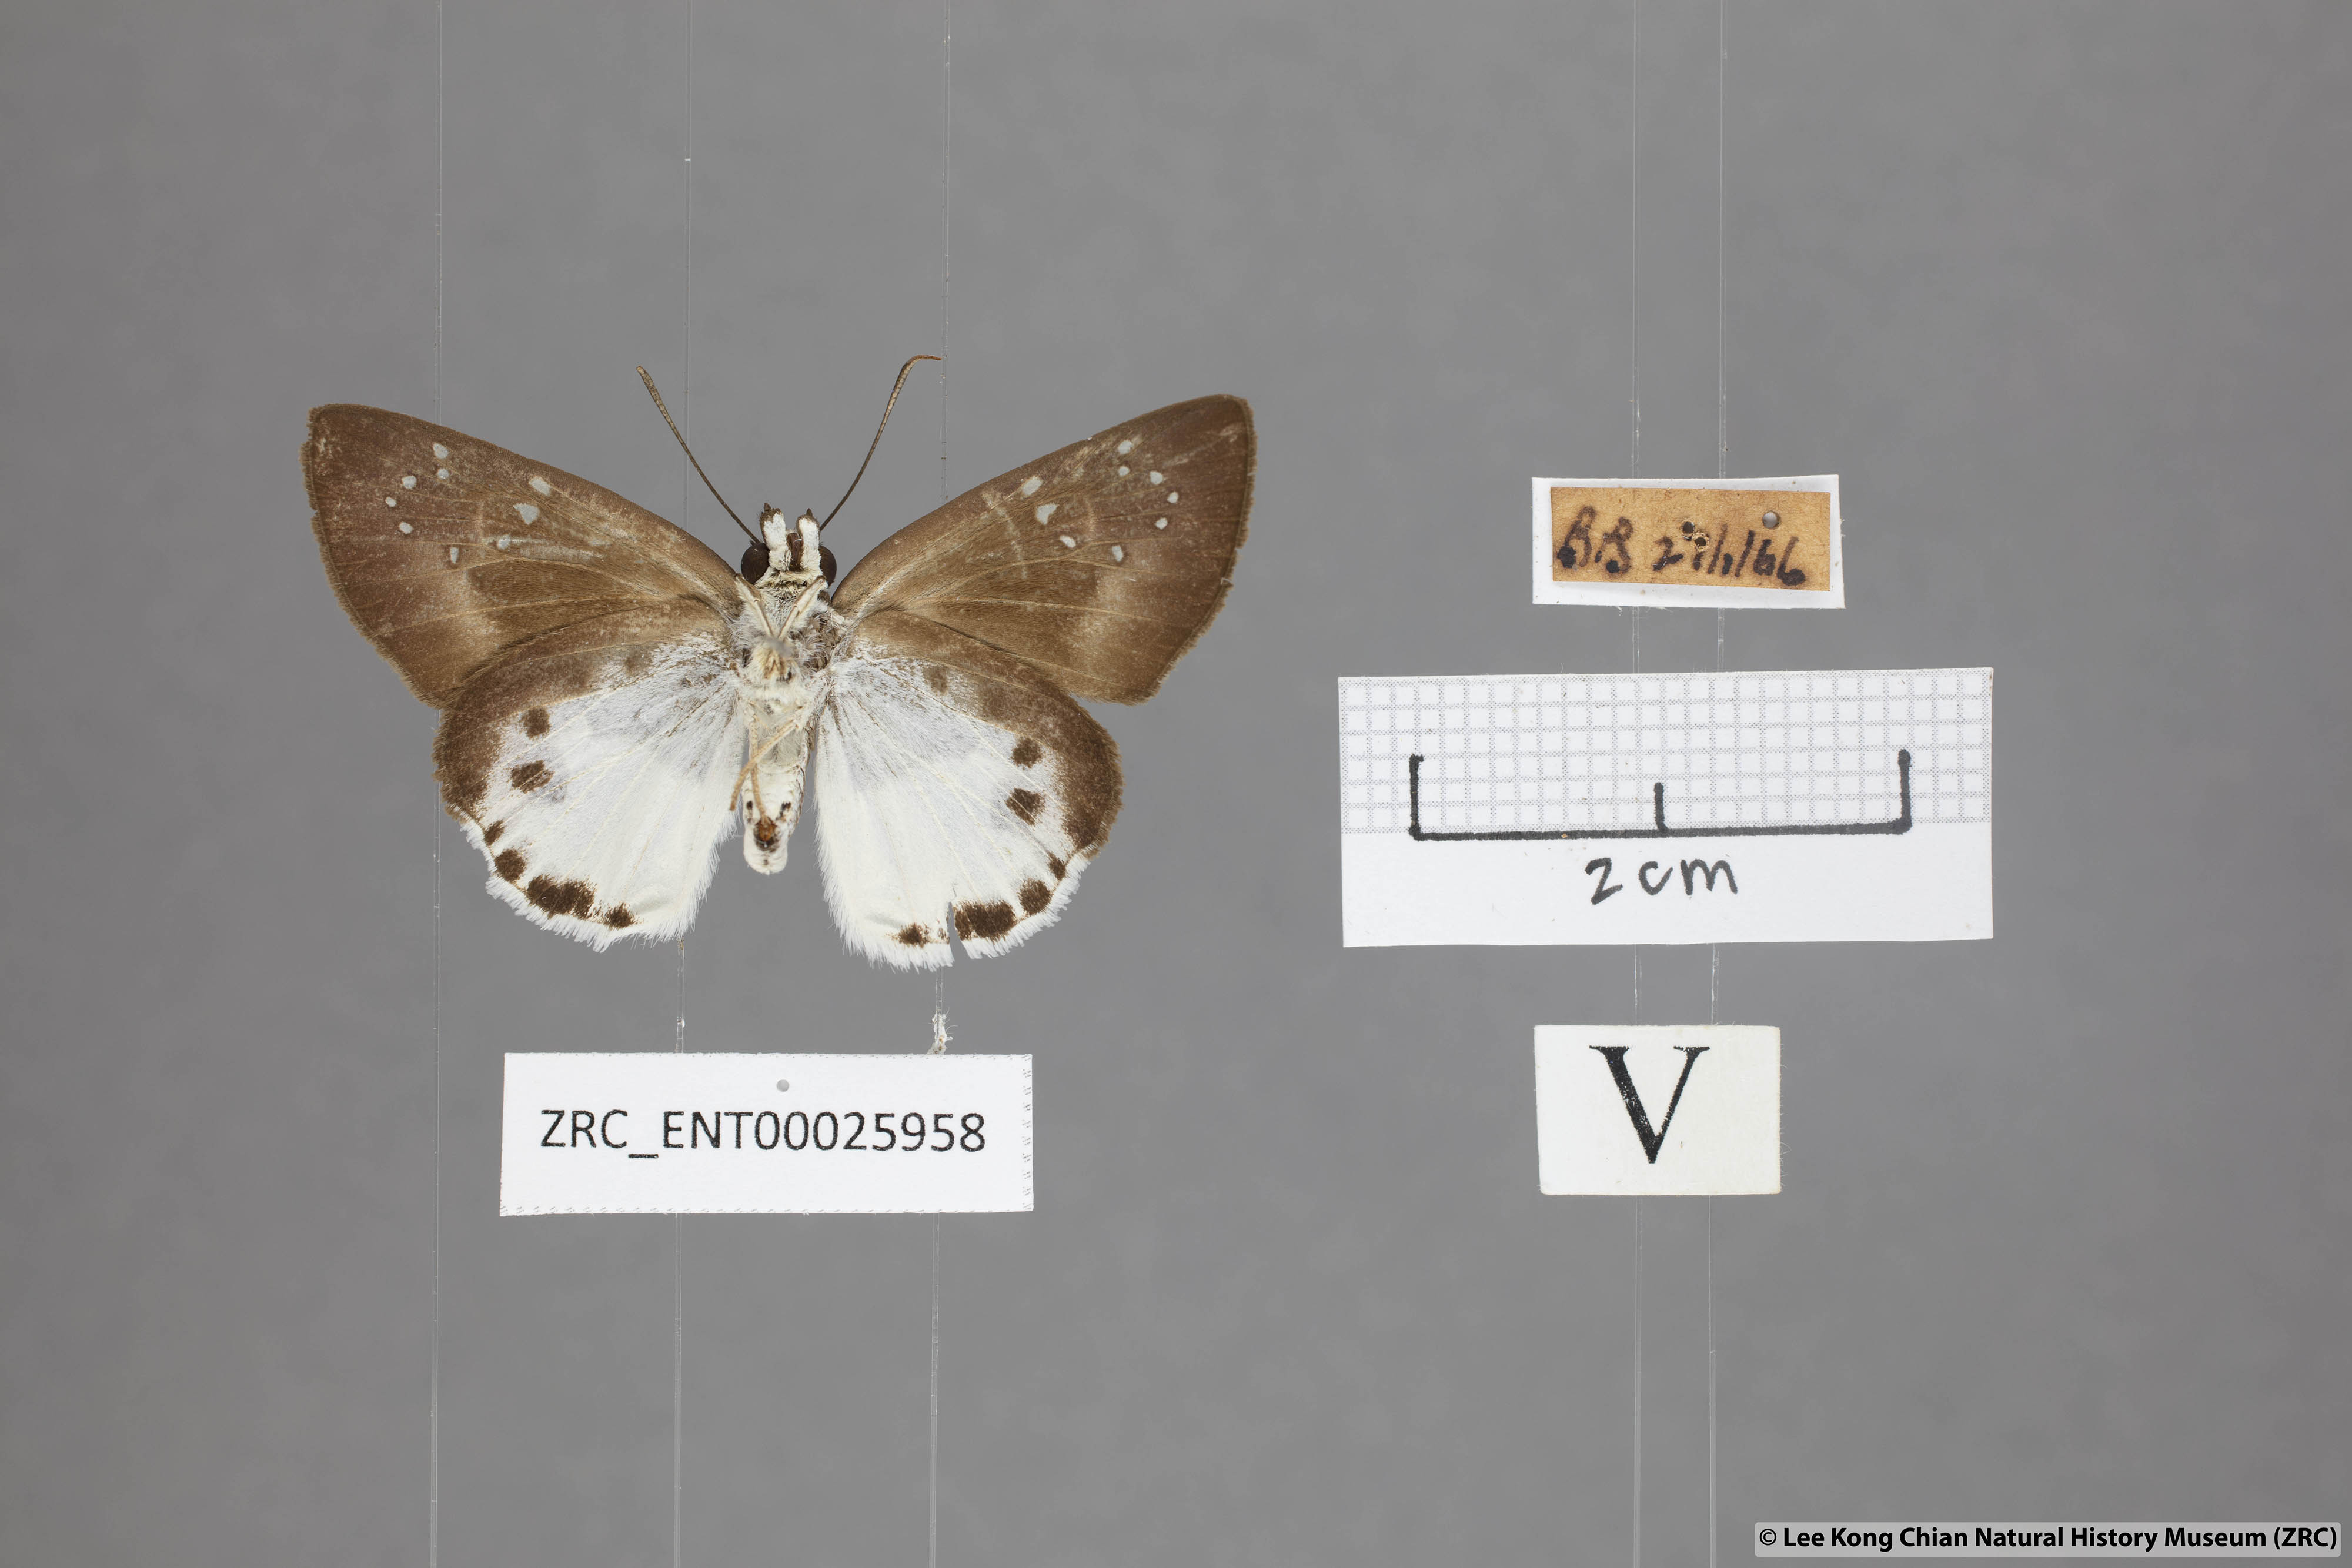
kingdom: Animalia
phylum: Arthropoda
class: Insecta
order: Lepidoptera
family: Hesperiidae
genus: Tagiades
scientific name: Tagiades calligana
